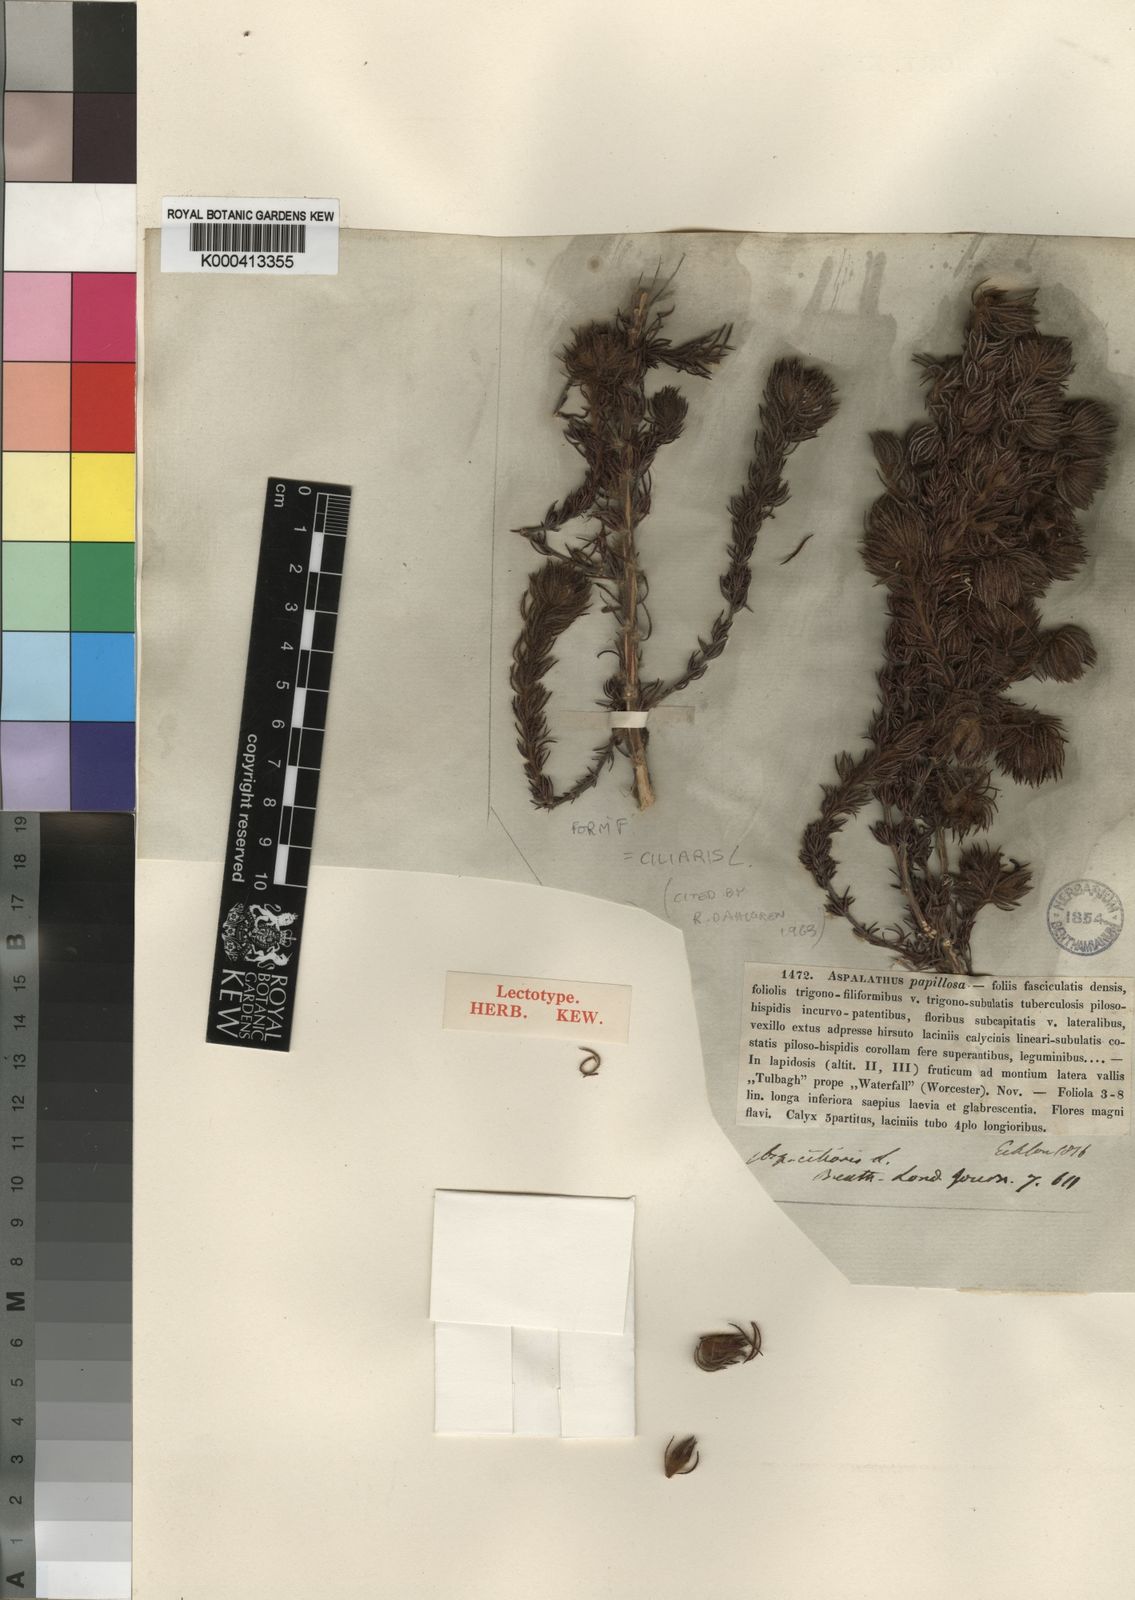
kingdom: Plantae
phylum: Tracheophyta
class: Magnoliopsida
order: Fabales
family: Fabaceae
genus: Aspalathus
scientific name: Aspalathus ciliaris
